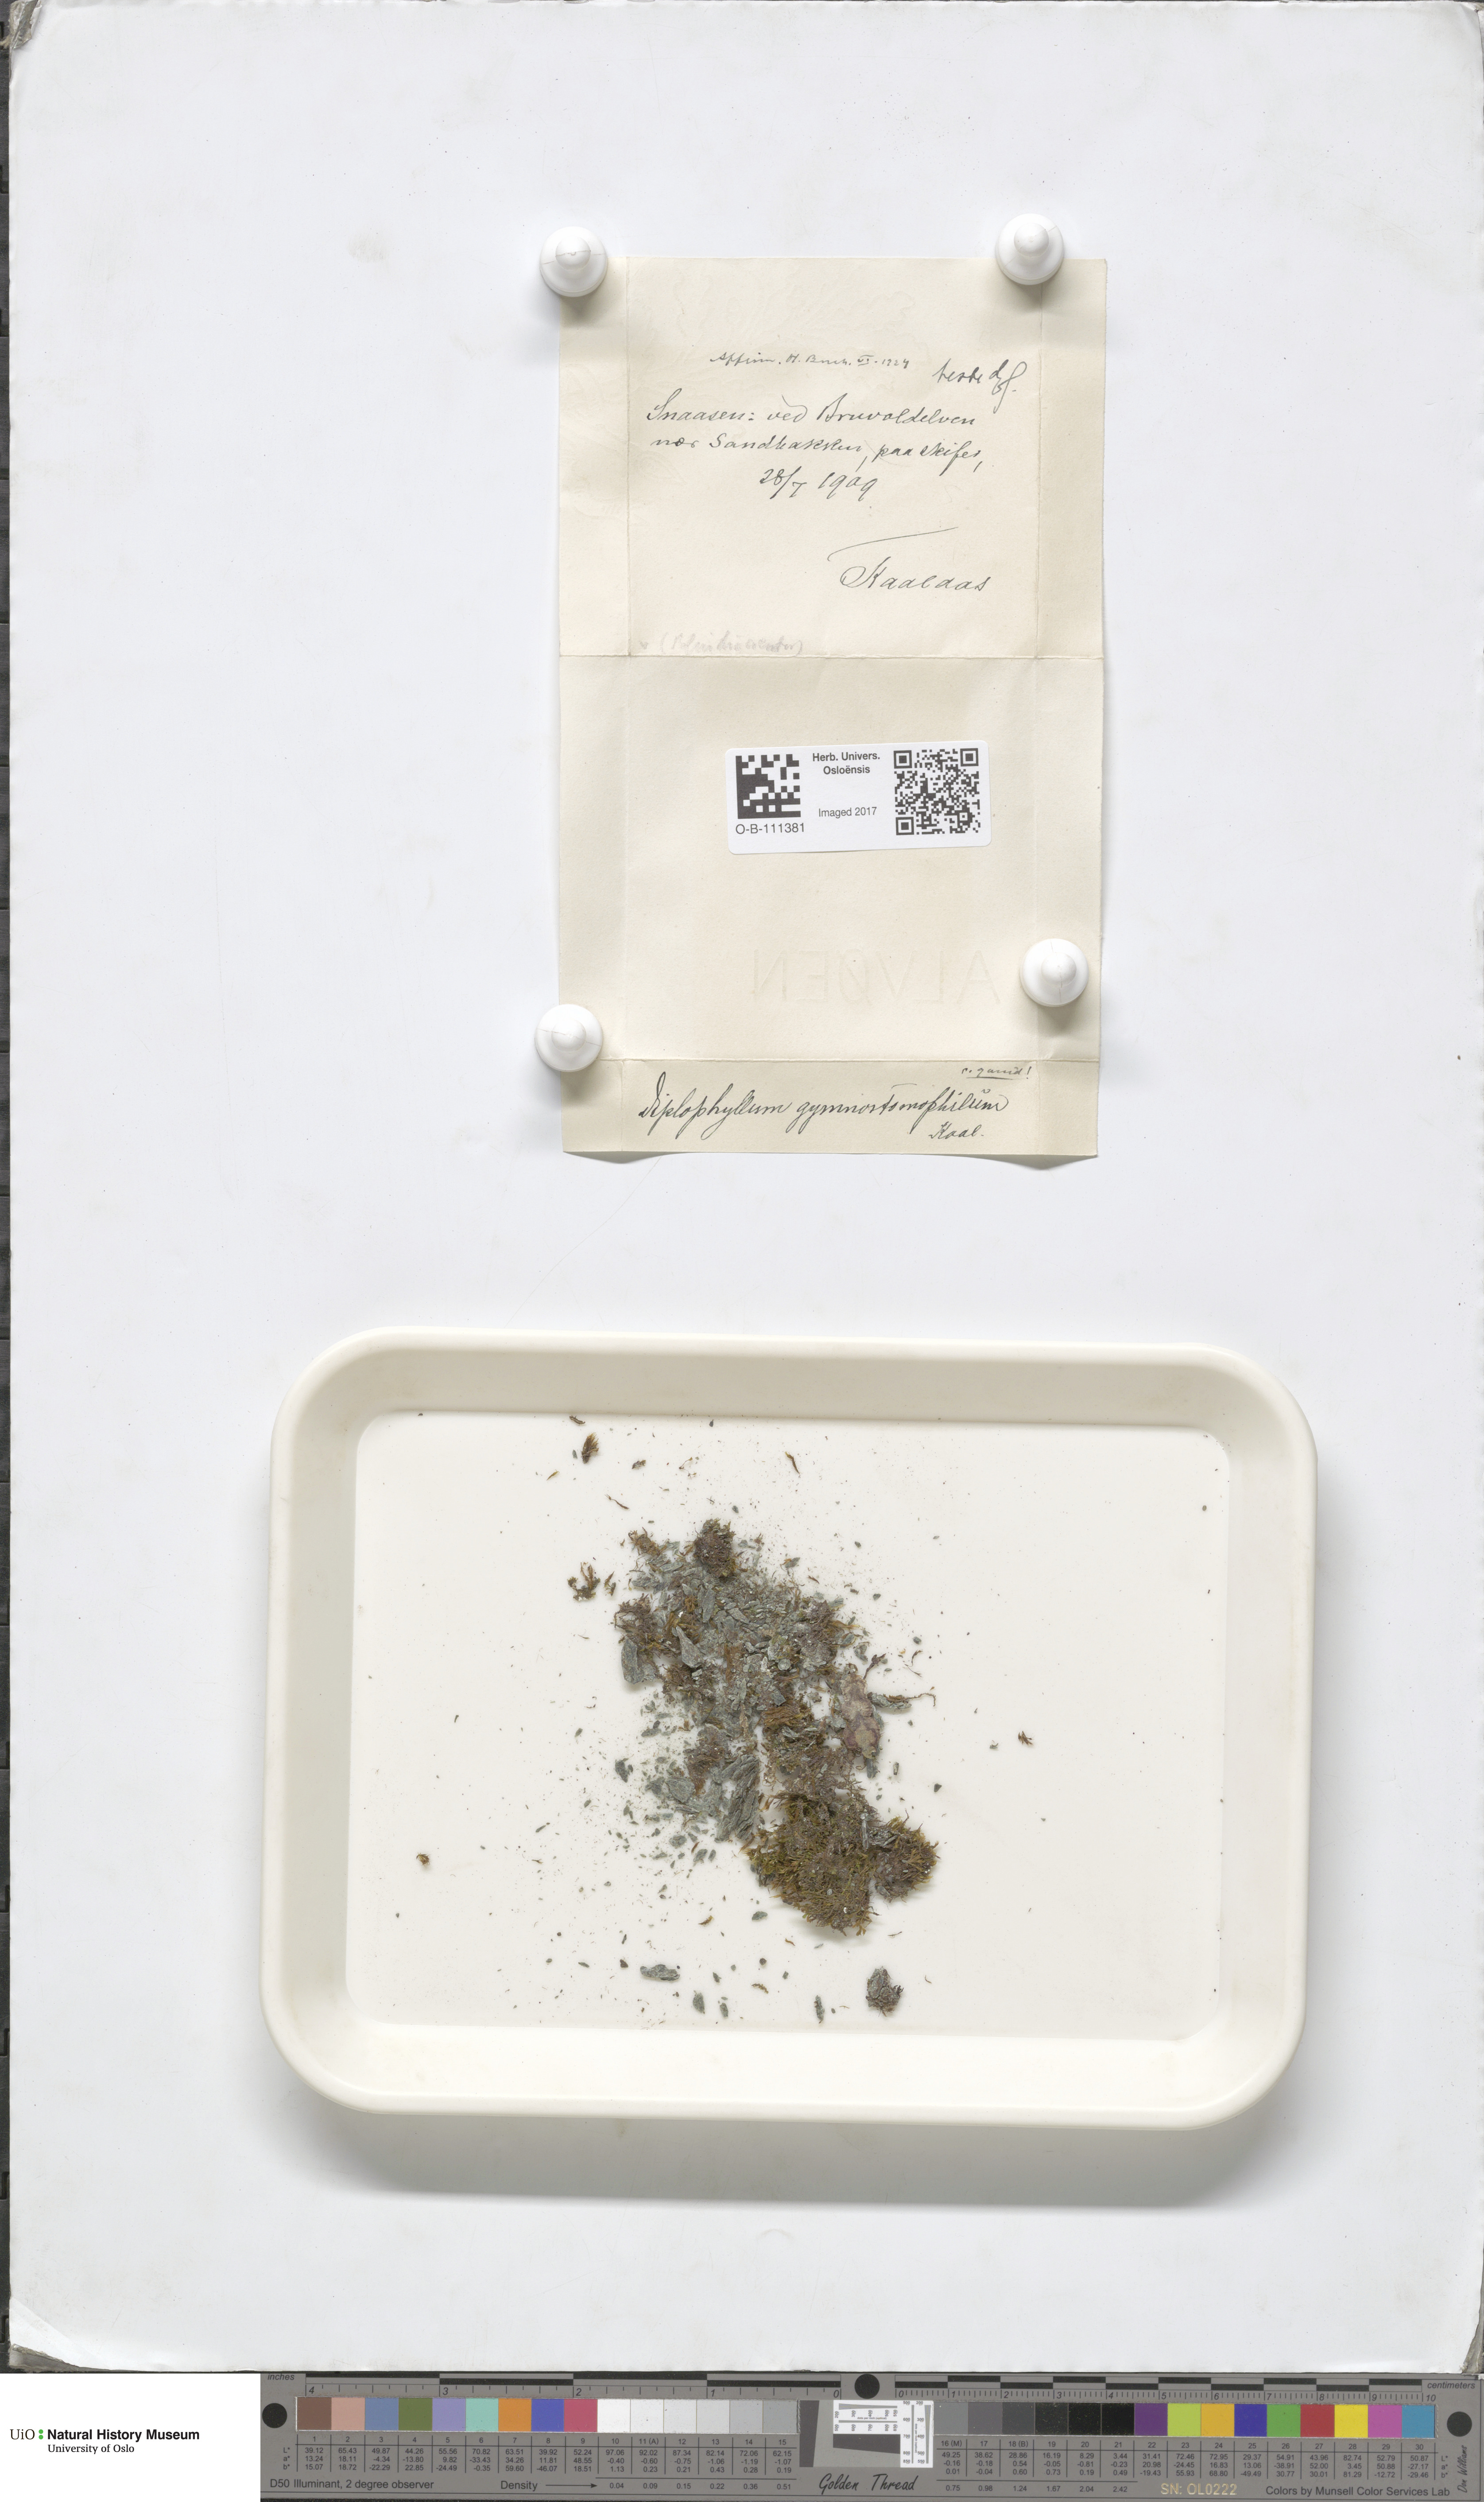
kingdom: Plantae
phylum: Marchantiophyta
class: Jungermanniopsida
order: Jungermanniales
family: Scapaniaceae
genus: Scapania
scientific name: Scapania gymnostomophila
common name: Narrow-lobed earwort
